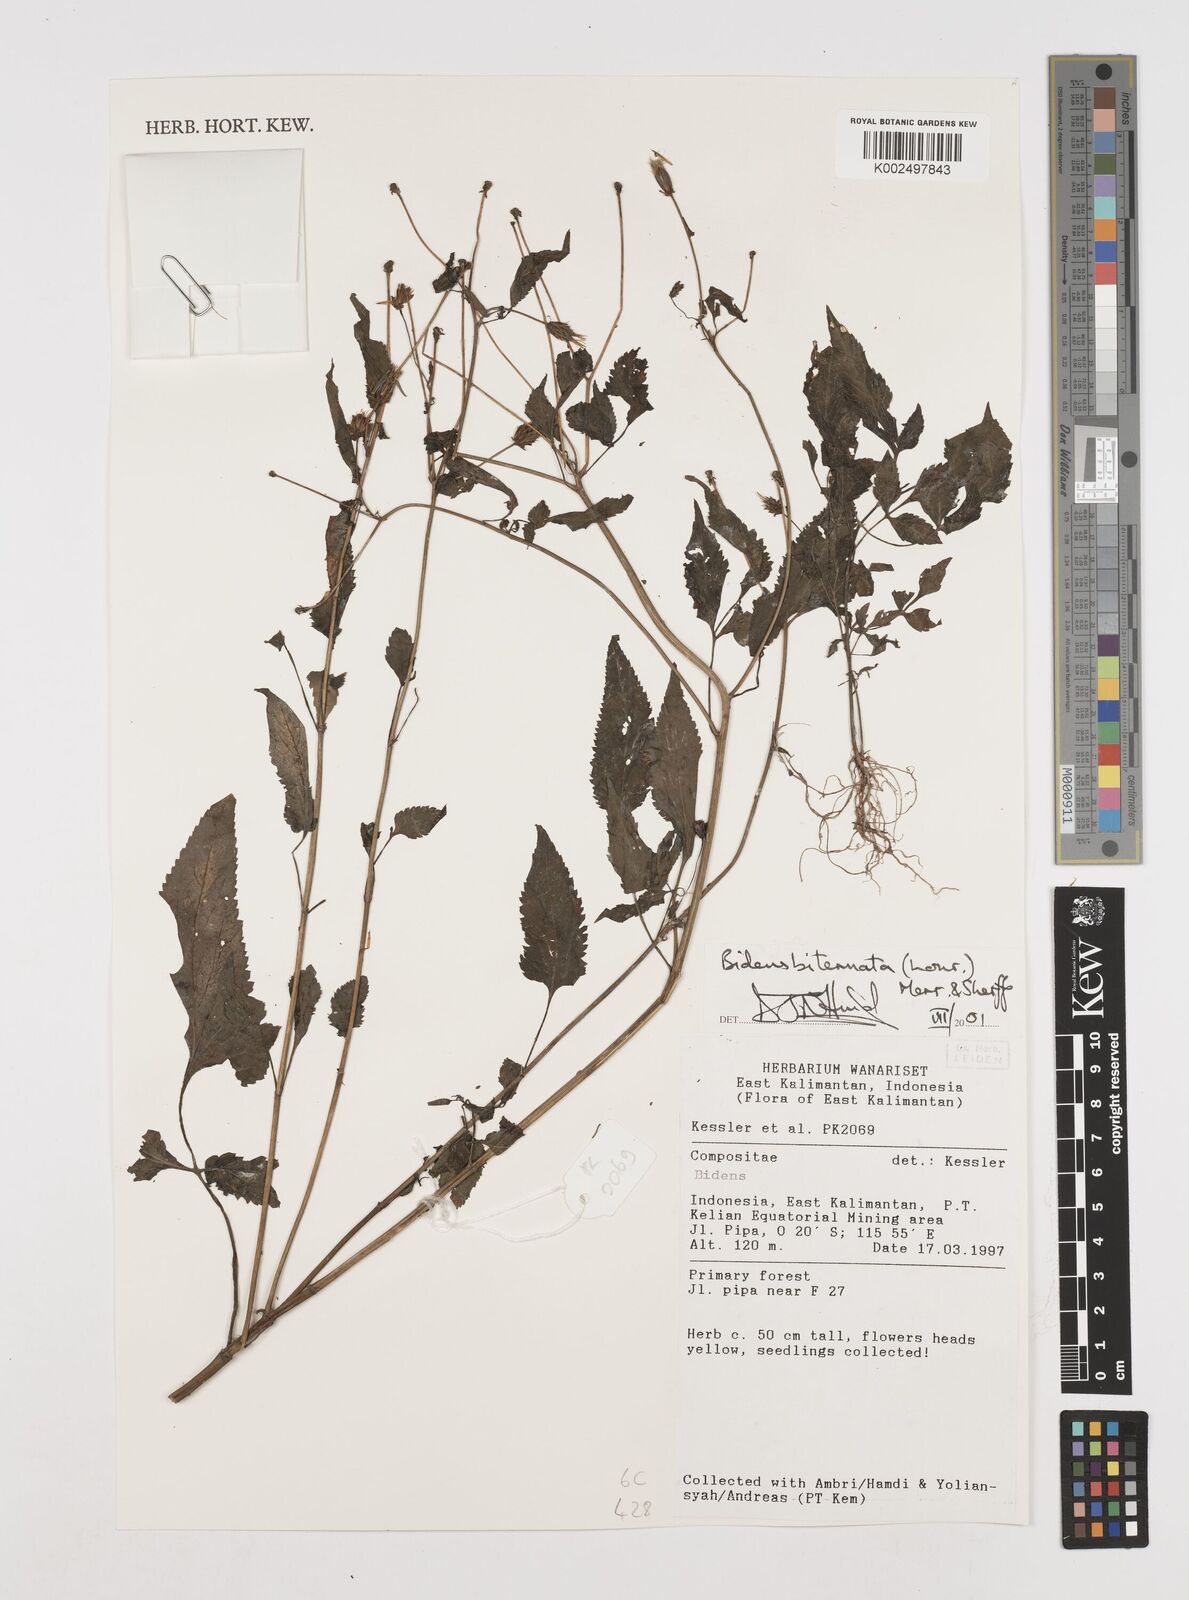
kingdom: Plantae
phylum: Tracheophyta
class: Magnoliopsida
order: Asterales
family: Asteraceae
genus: Bidens
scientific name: Bidens biternata
